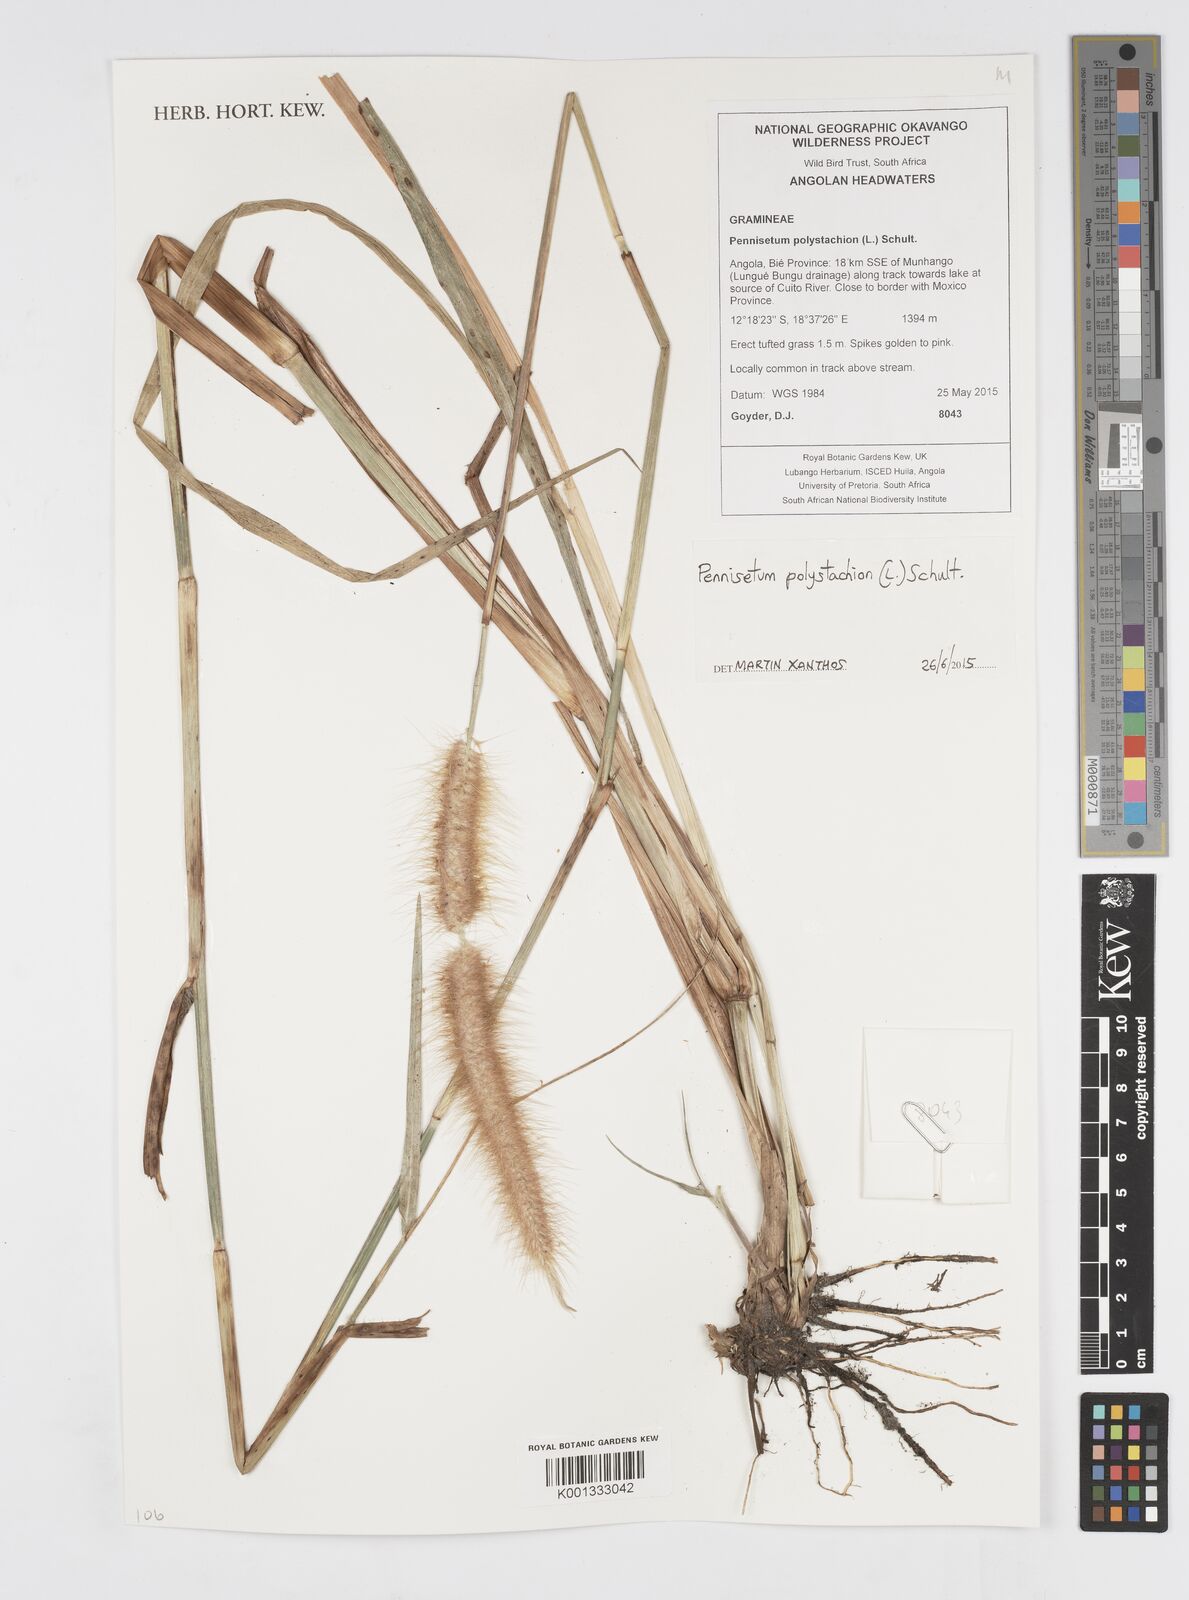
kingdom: Plantae
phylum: Tracheophyta
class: Liliopsida
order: Poales
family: Poaceae
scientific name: Poaceae
